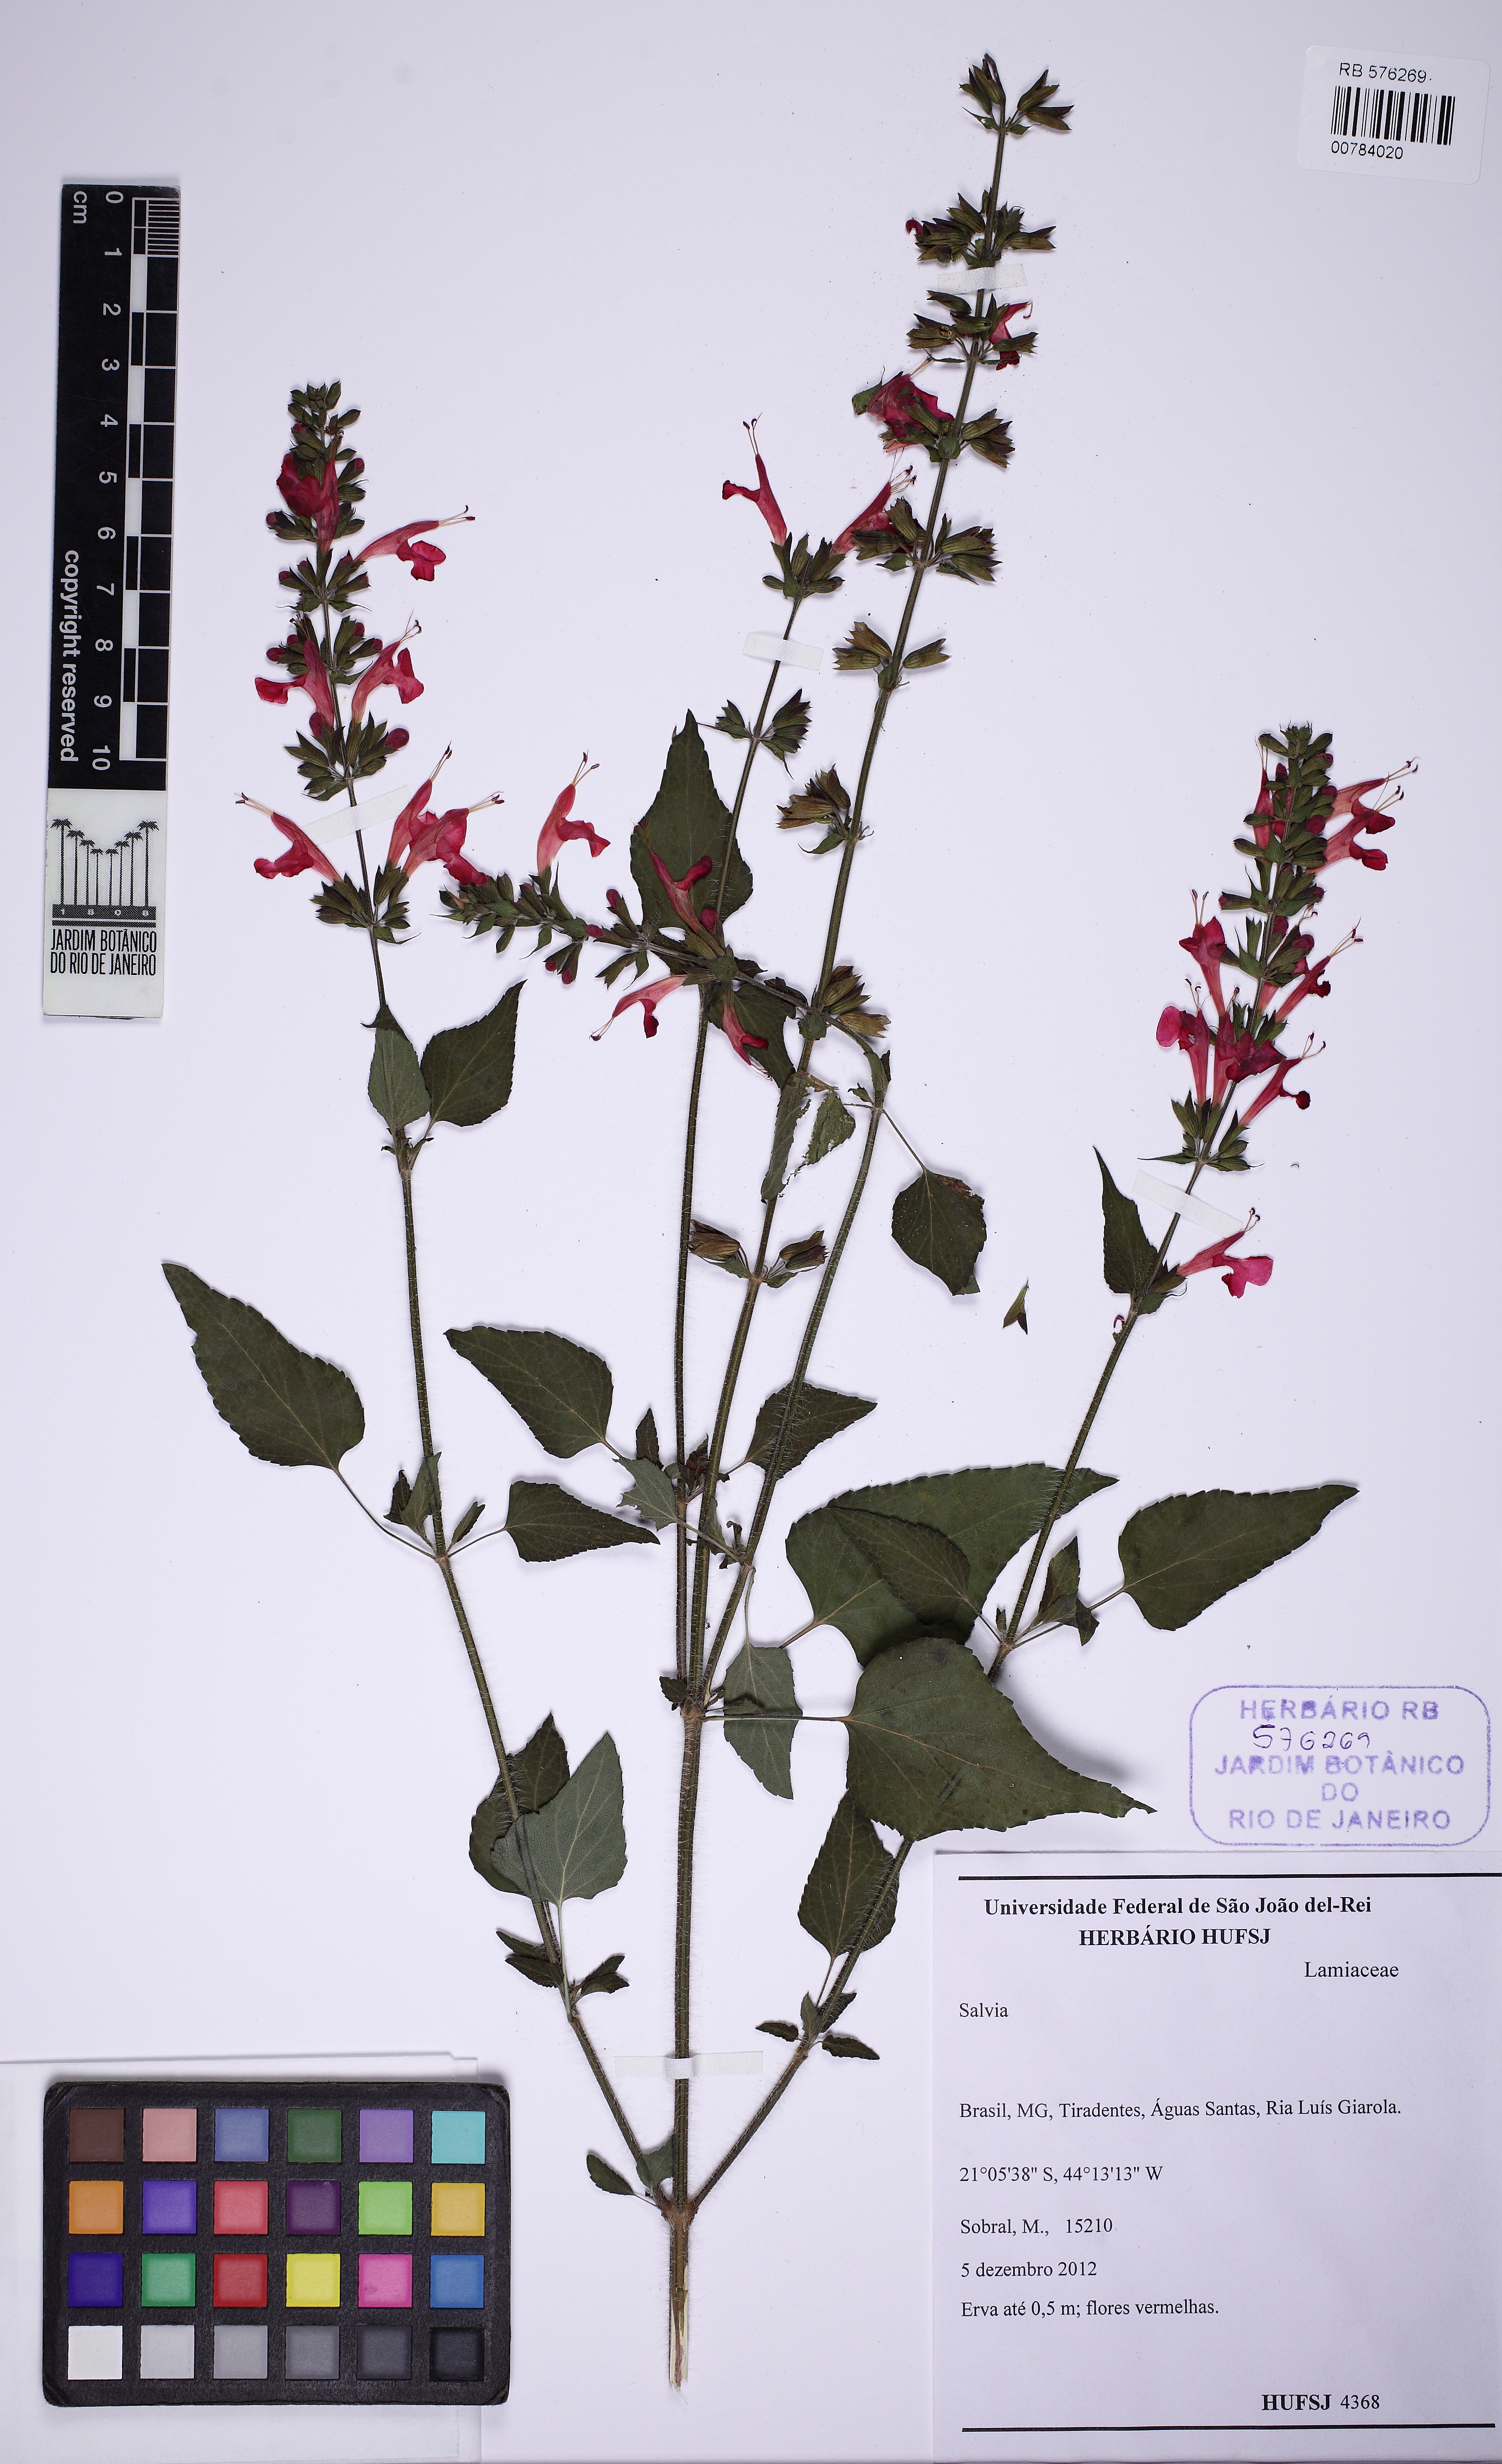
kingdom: Plantae
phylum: Tracheophyta
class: Magnoliopsida
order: Lamiales
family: Lamiaceae
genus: Salvia
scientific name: Salvia coccinea
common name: Blood sage
